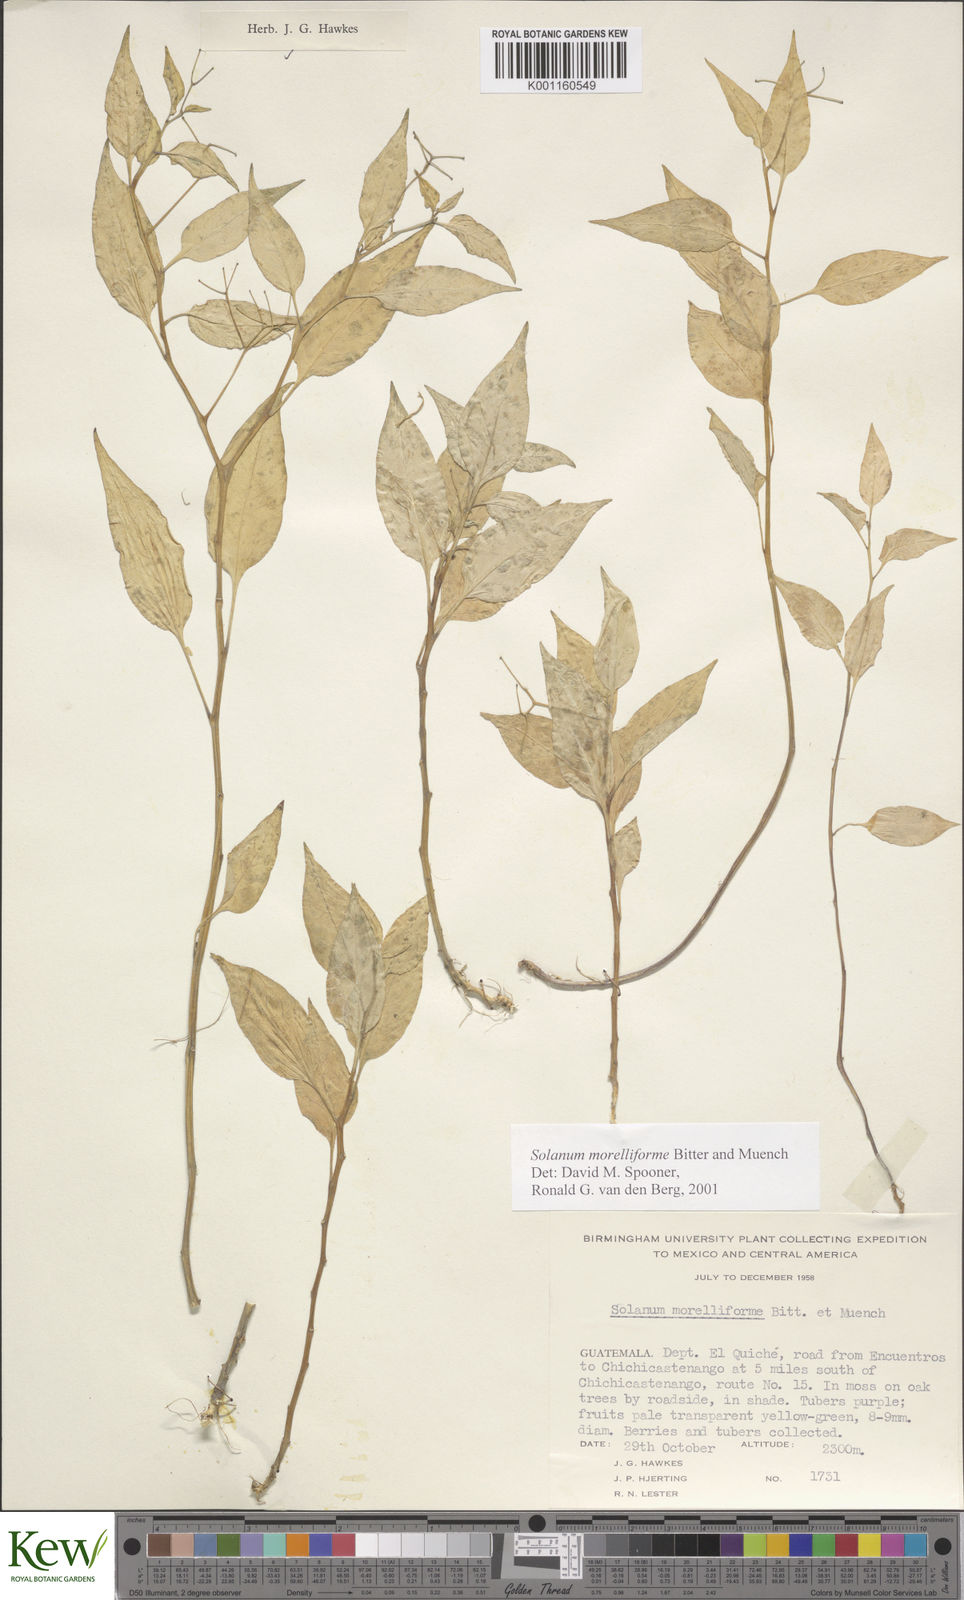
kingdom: Plantae
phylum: Tracheophyta
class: Magnoliopsida
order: Solanales
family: Solanaceae
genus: Solanum
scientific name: Solanum
